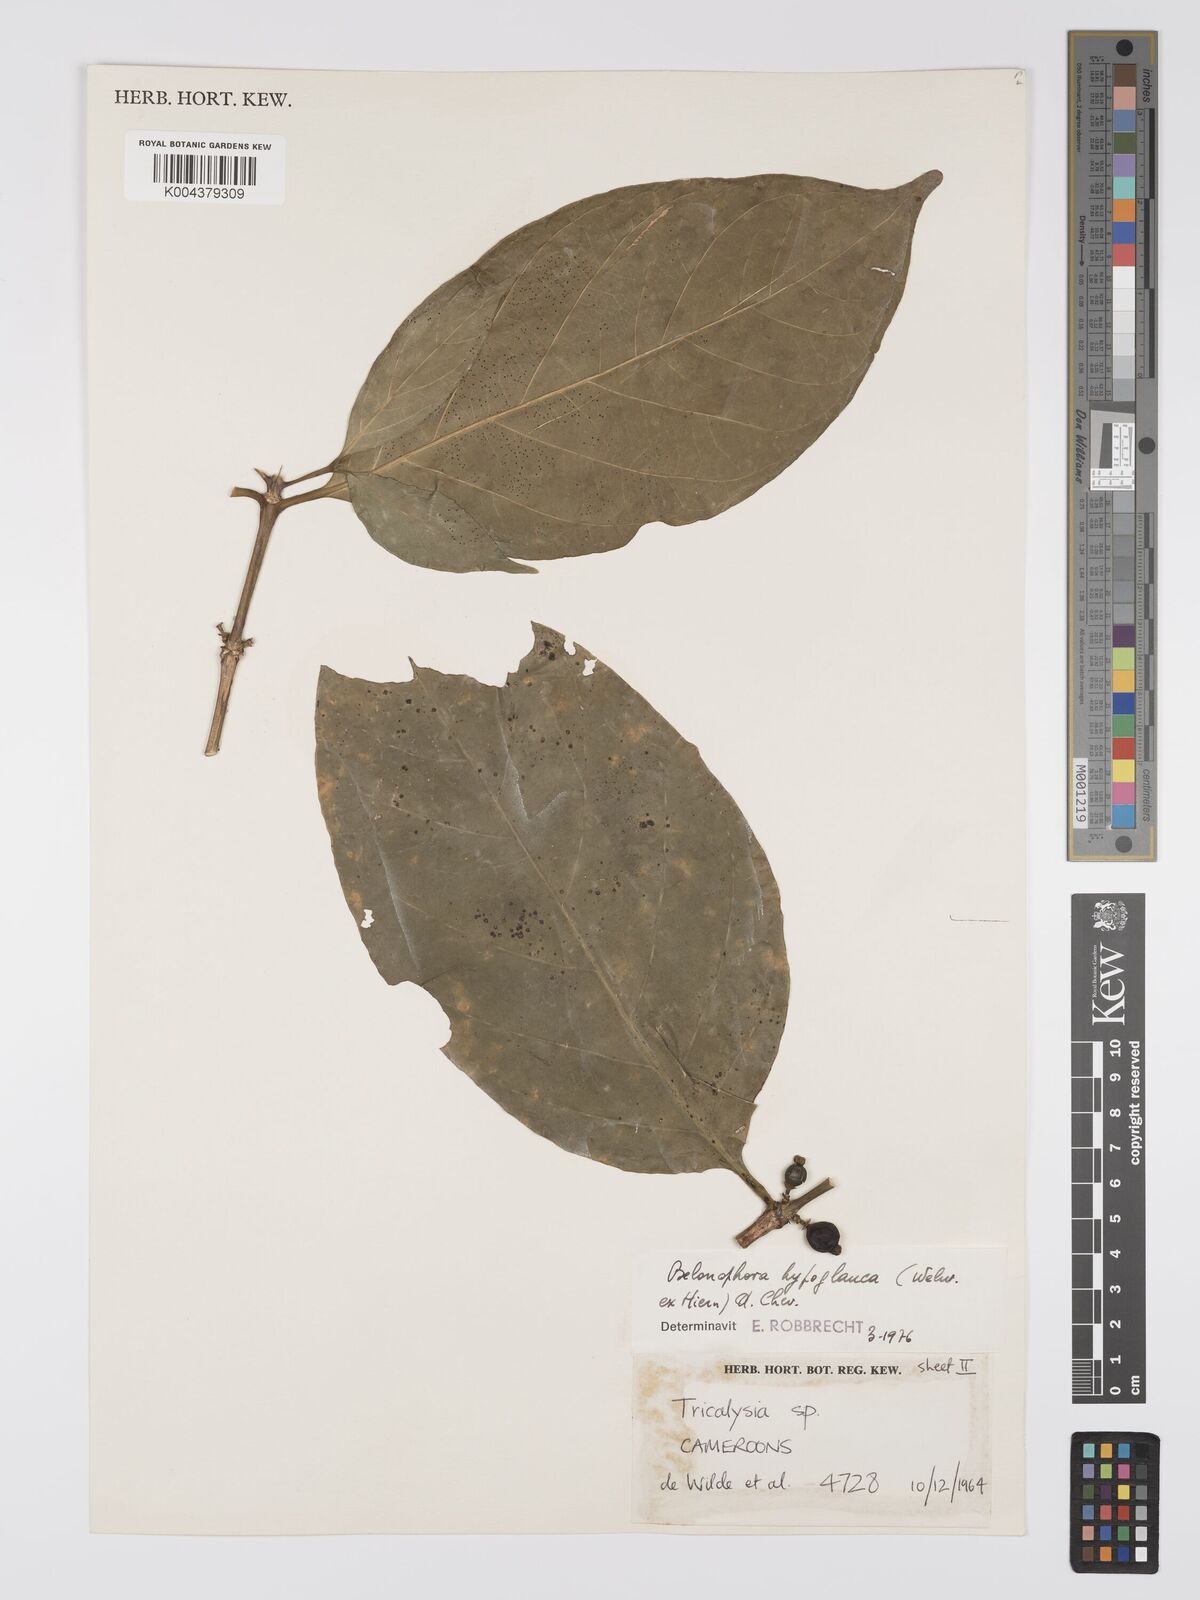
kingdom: Plantae
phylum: Tracheophyta
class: Magnoliopsida
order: Gentianales
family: Rubiaceae
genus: Belonophora
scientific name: Belonophora coffeoides
